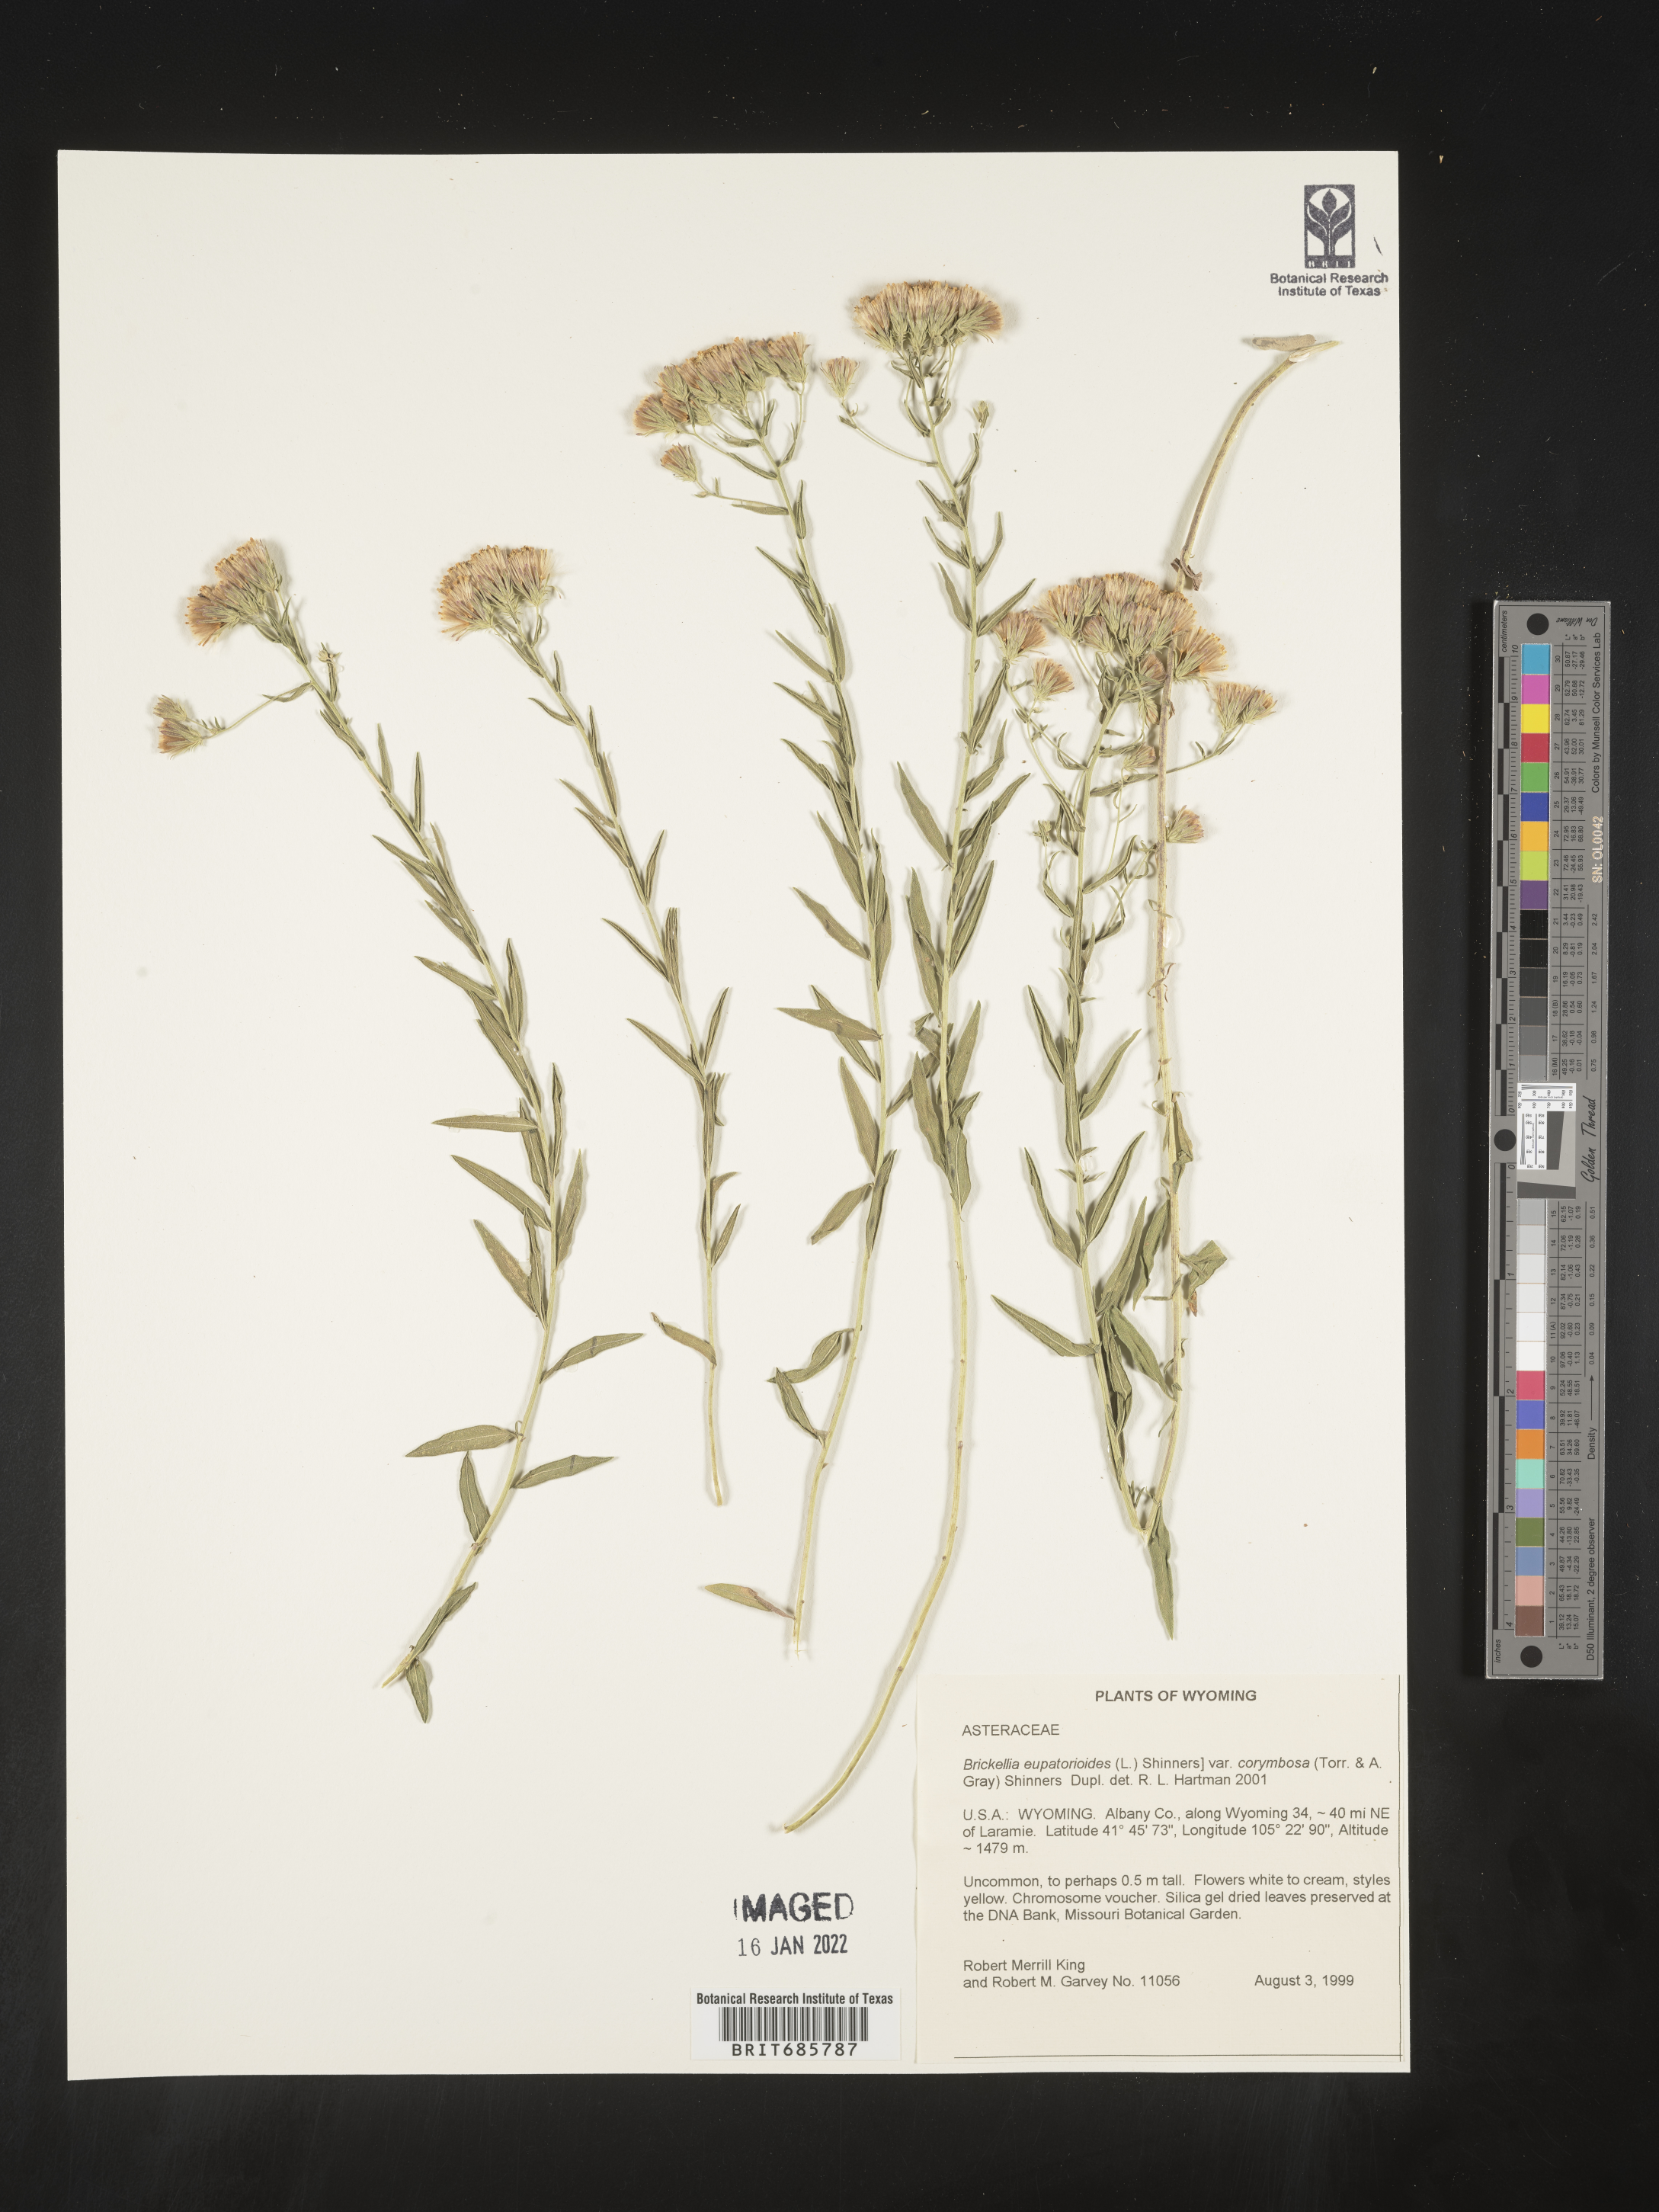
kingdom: Plantae
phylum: Tracheophyta
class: Magnoliopsida
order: Asterales
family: Asteraceae
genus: Brickellia
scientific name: Brickellia eupatorioides
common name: False boneset
